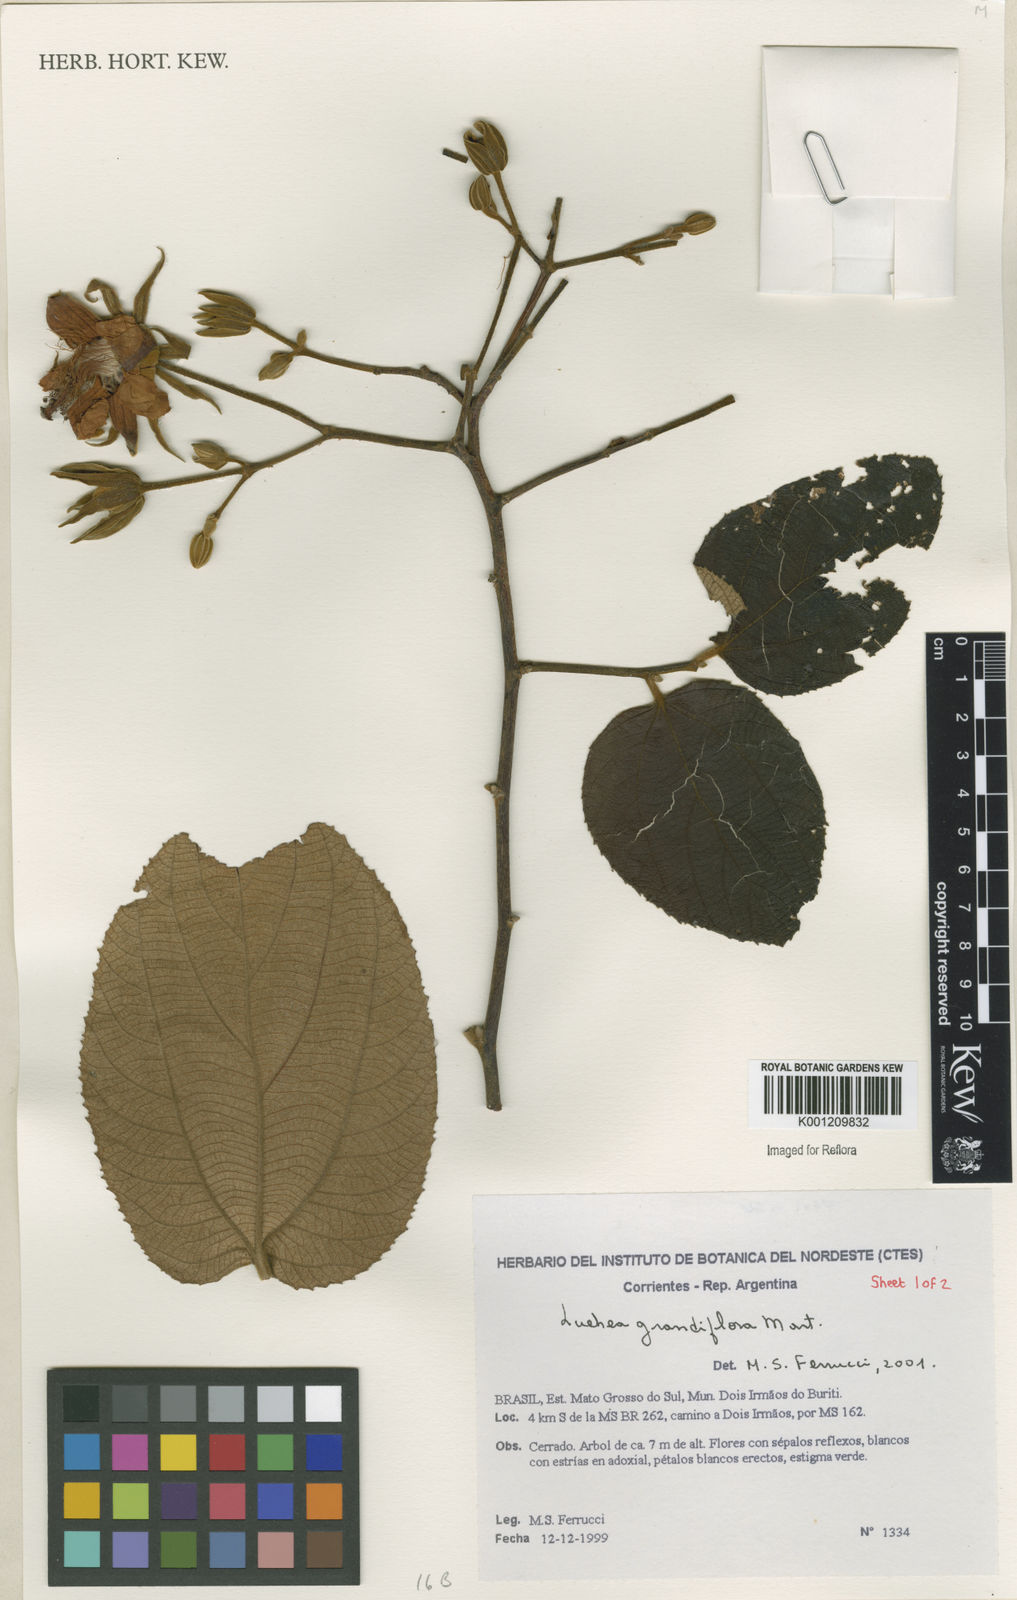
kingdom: Plantae
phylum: Tracheophyta
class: Magnoliopsida
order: Malvales
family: Malvaceae
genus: Luehea
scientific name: Luehea grandiflora
